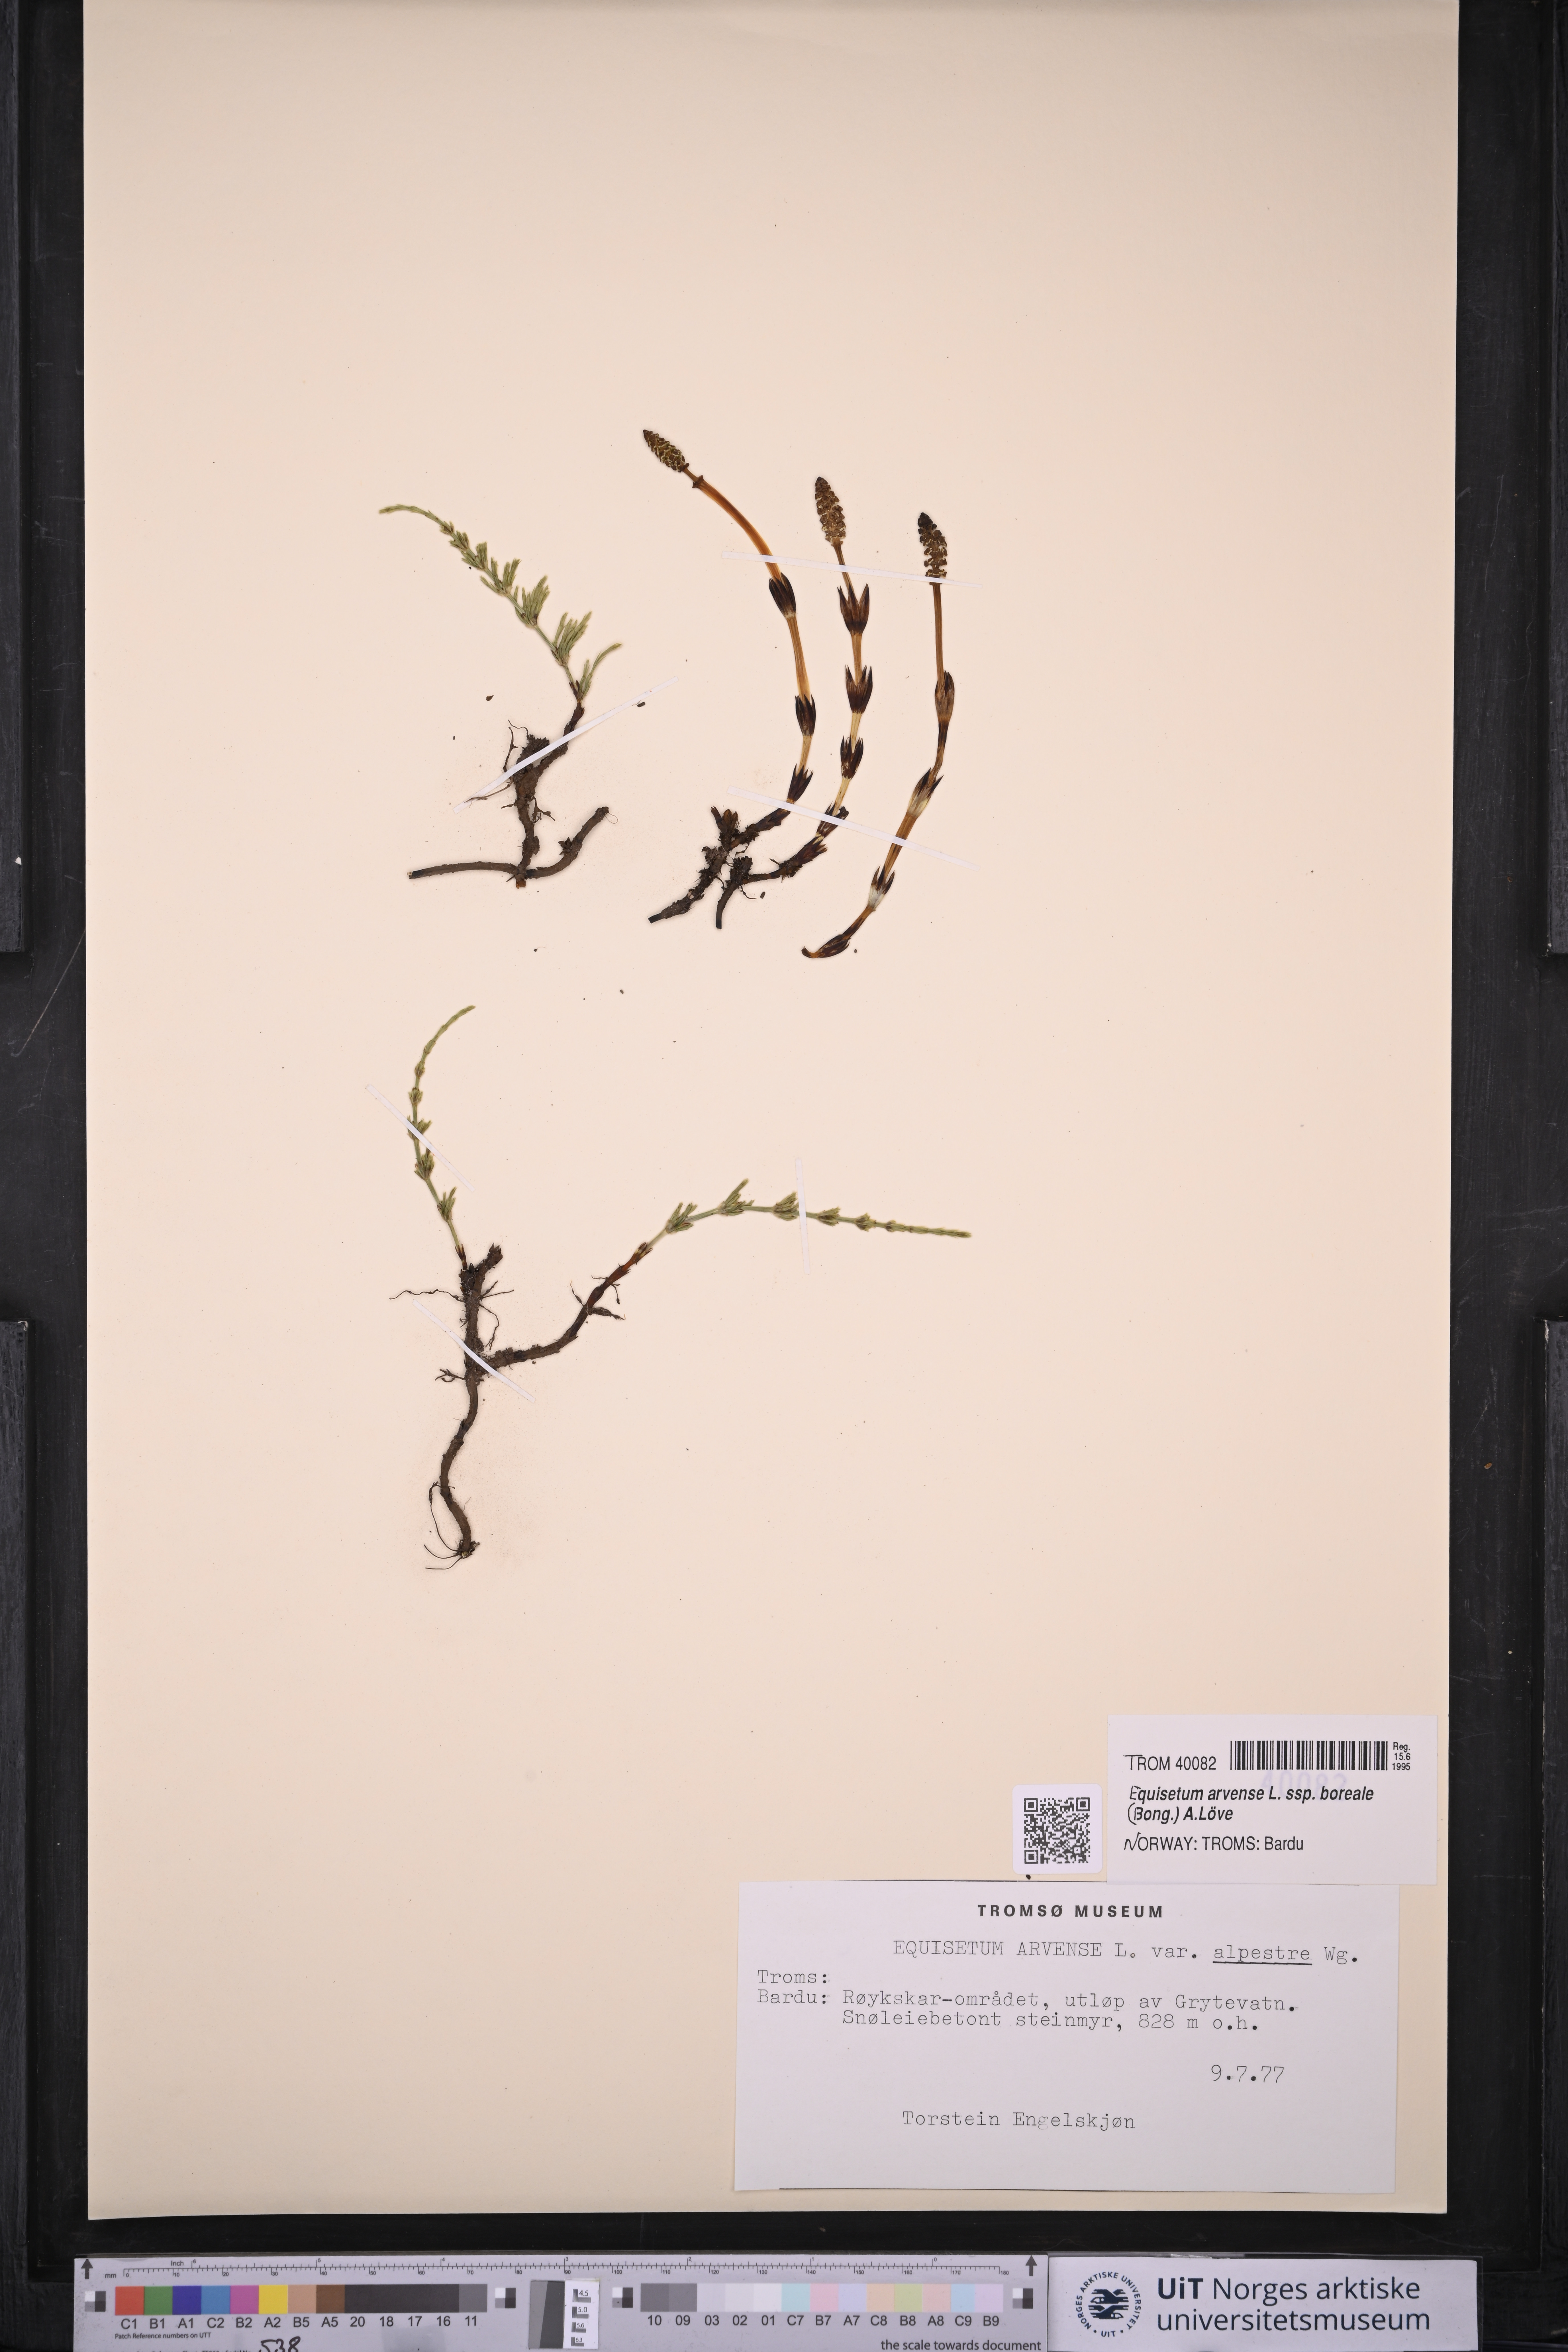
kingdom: Plantae
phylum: Tracheophyta
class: Polypodiopsida
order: Equisetales
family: Equisetaceae
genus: Equisetum
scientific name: Equisetum arvense
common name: Field horsetail
